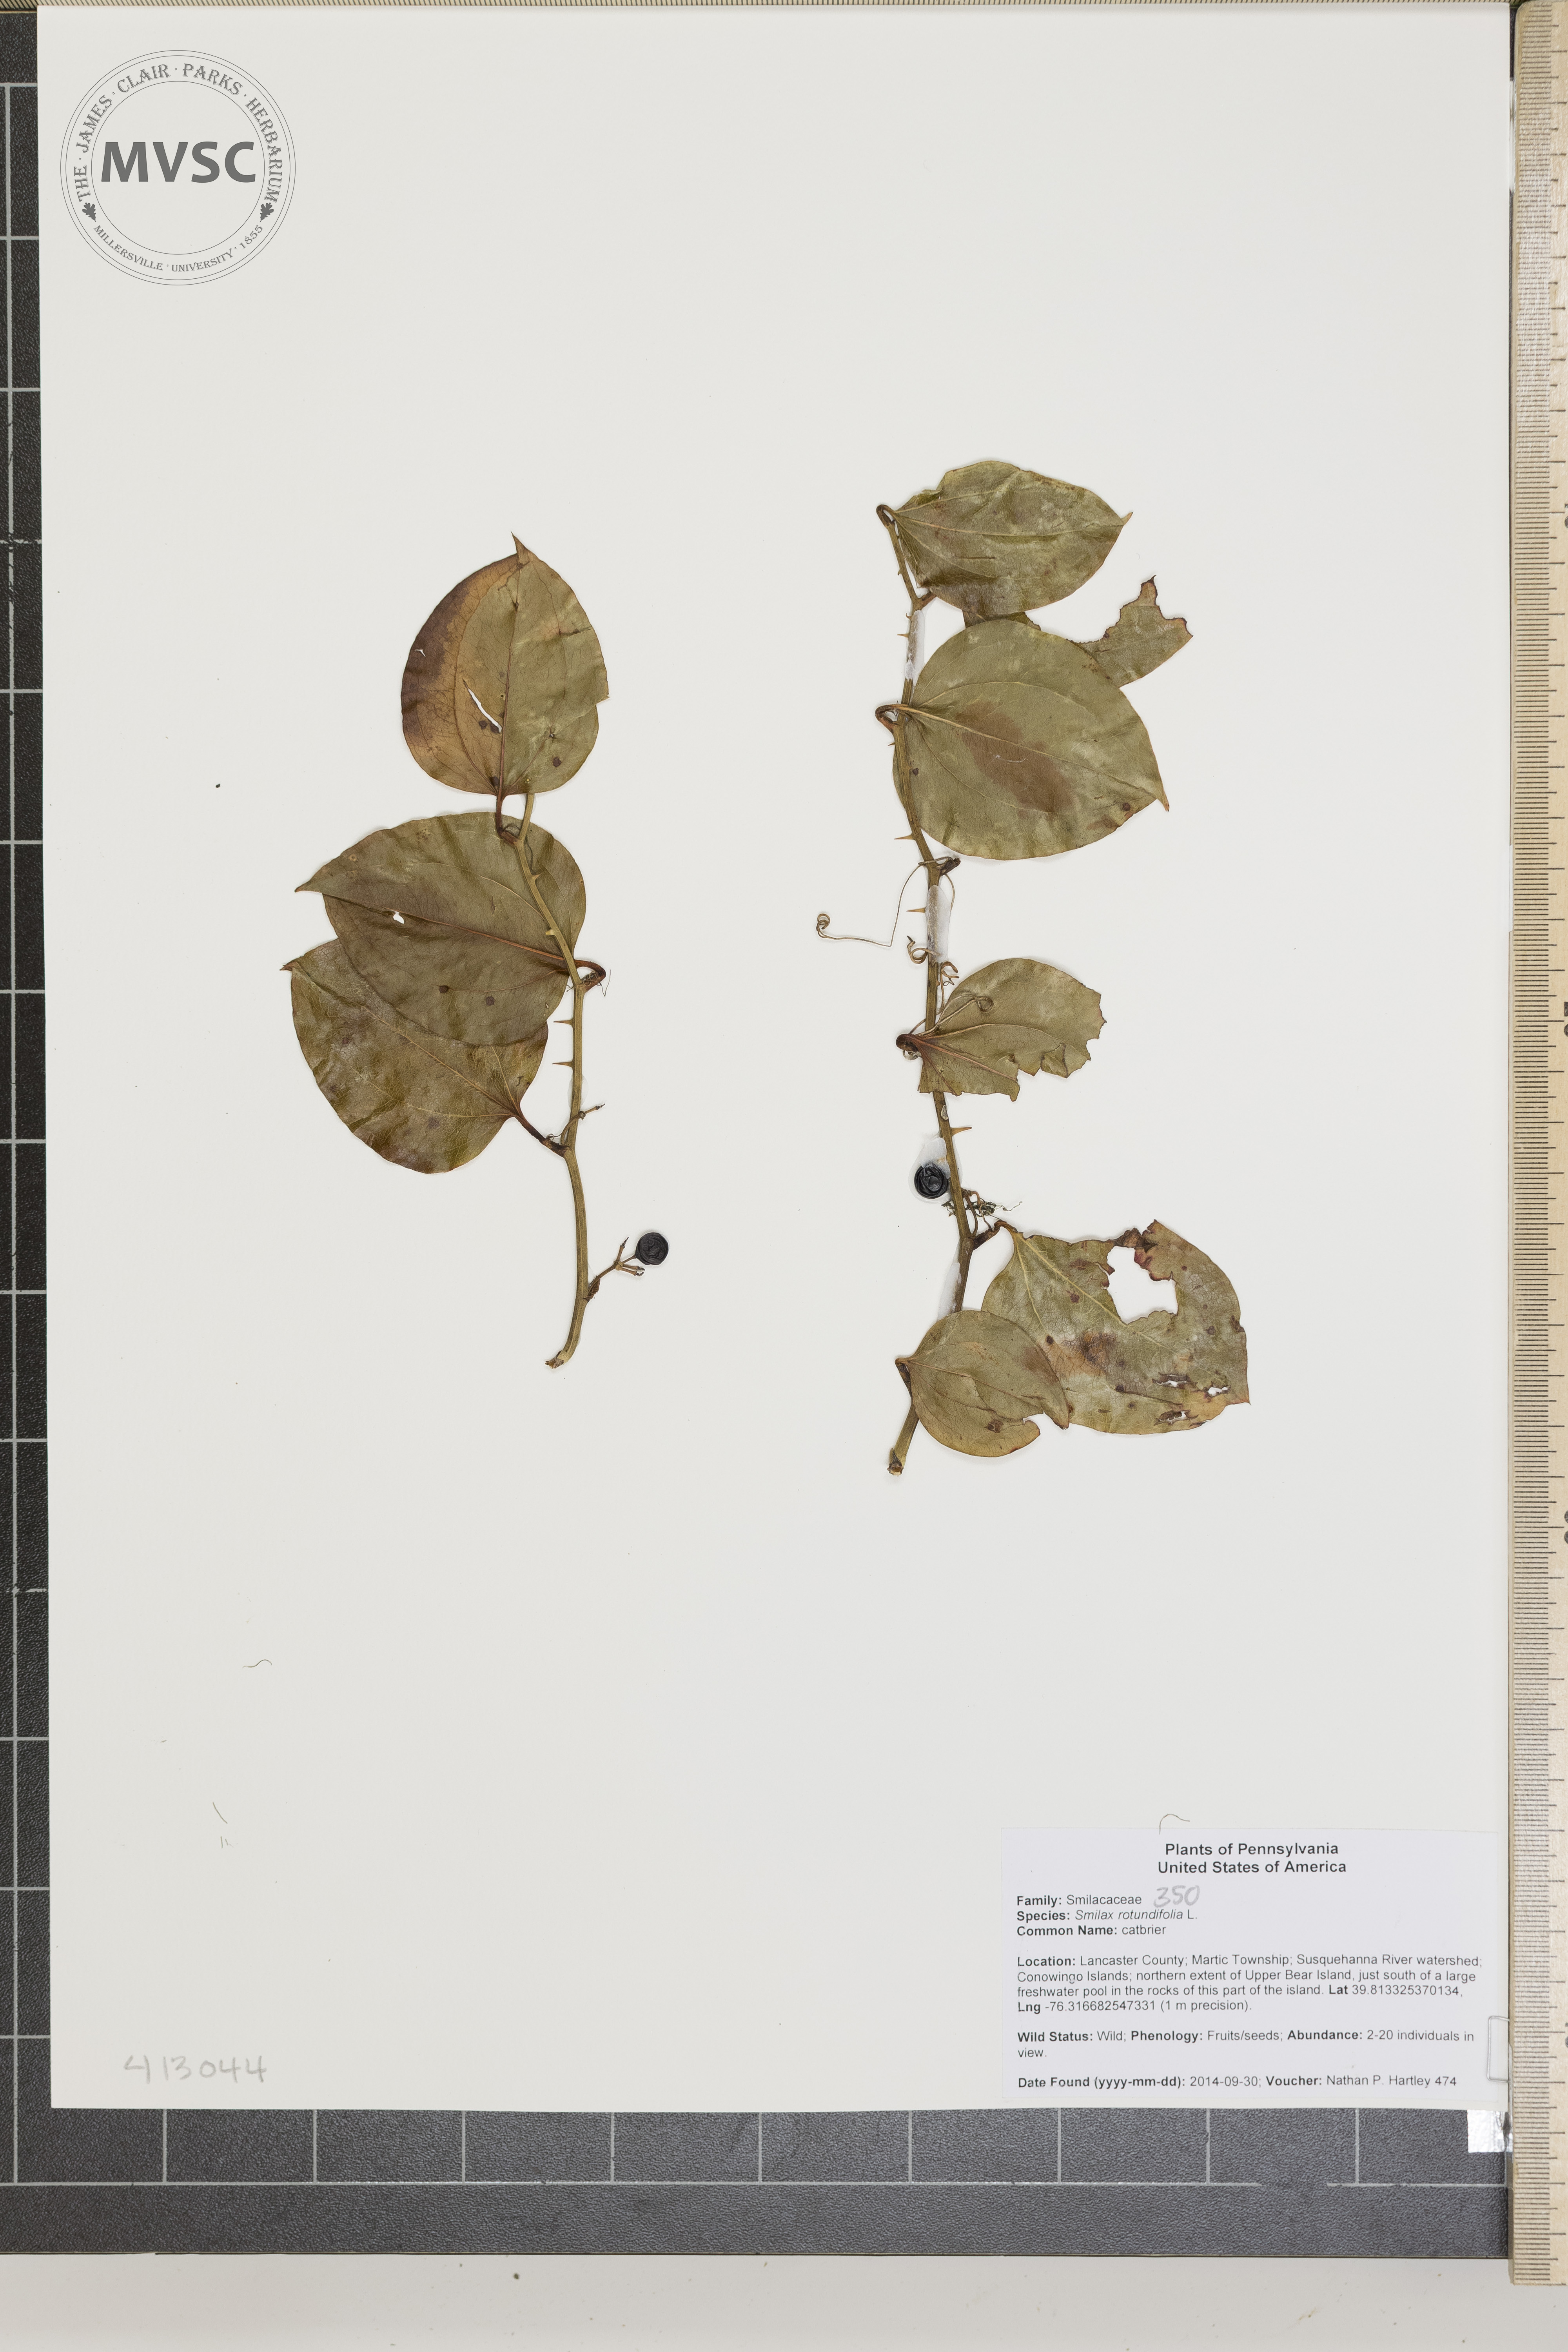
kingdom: Plantae
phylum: Tracheophyta
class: Liliopsida
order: Liliales
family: Smilacaceae
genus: Smilax
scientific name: Smilax rotundifolia
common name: catbrier
